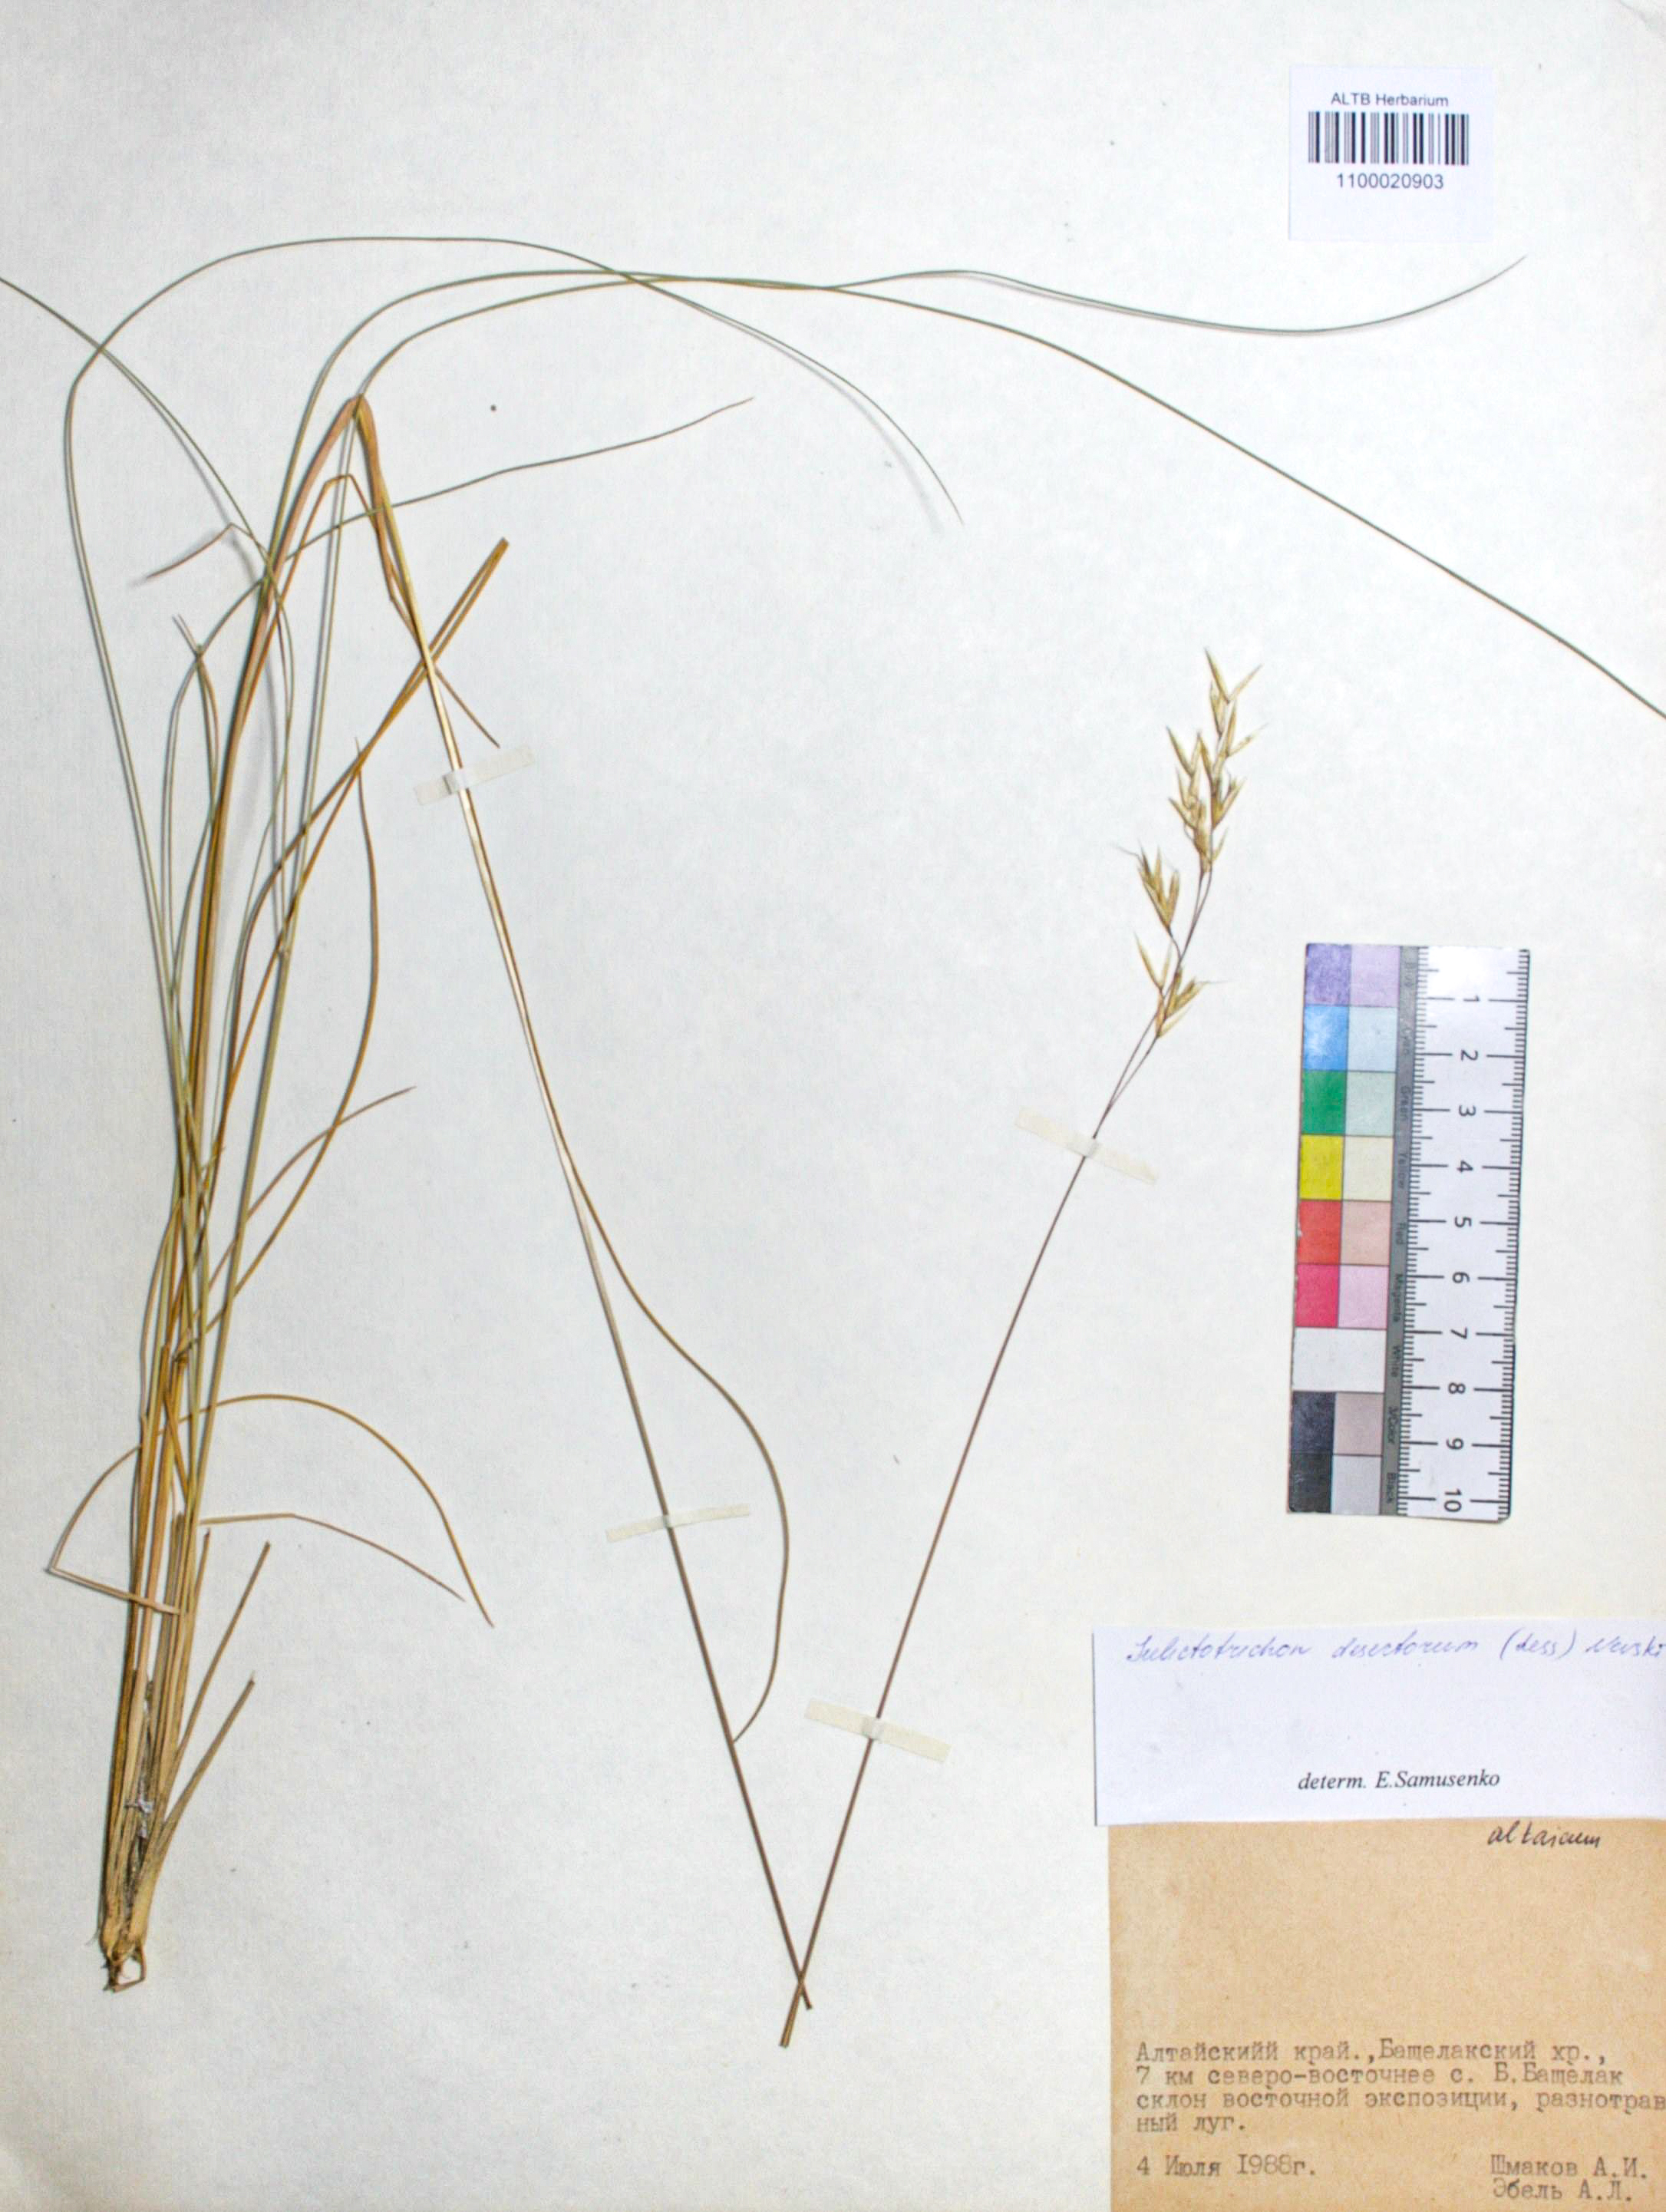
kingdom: Plantae
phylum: Tracheophyta
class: Liliopsida
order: Poales
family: Poaceae
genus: Helictotrichon
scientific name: Helictotrichon desertorum
